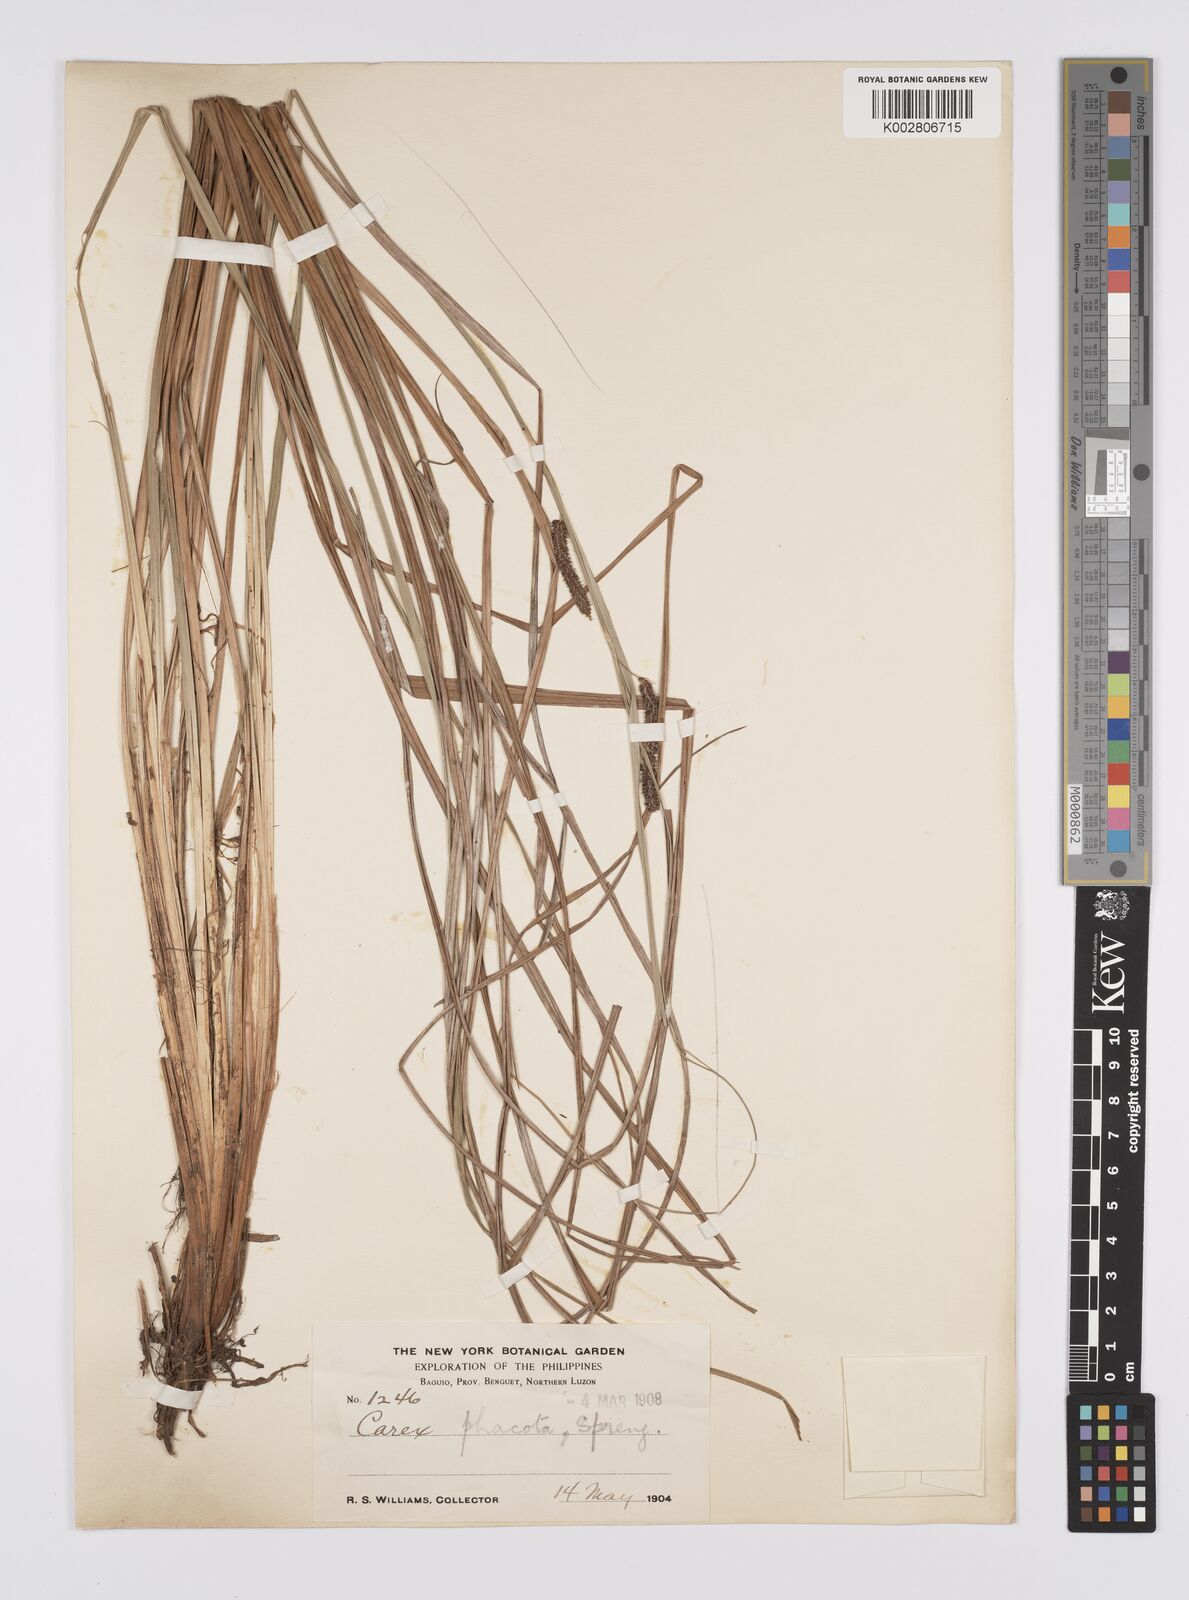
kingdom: Plantae
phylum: Tracheophyta
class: Liliopsida
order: Poales
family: Cyperaceae
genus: Carex
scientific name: Carex phacota
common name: Lakeshore sedge
